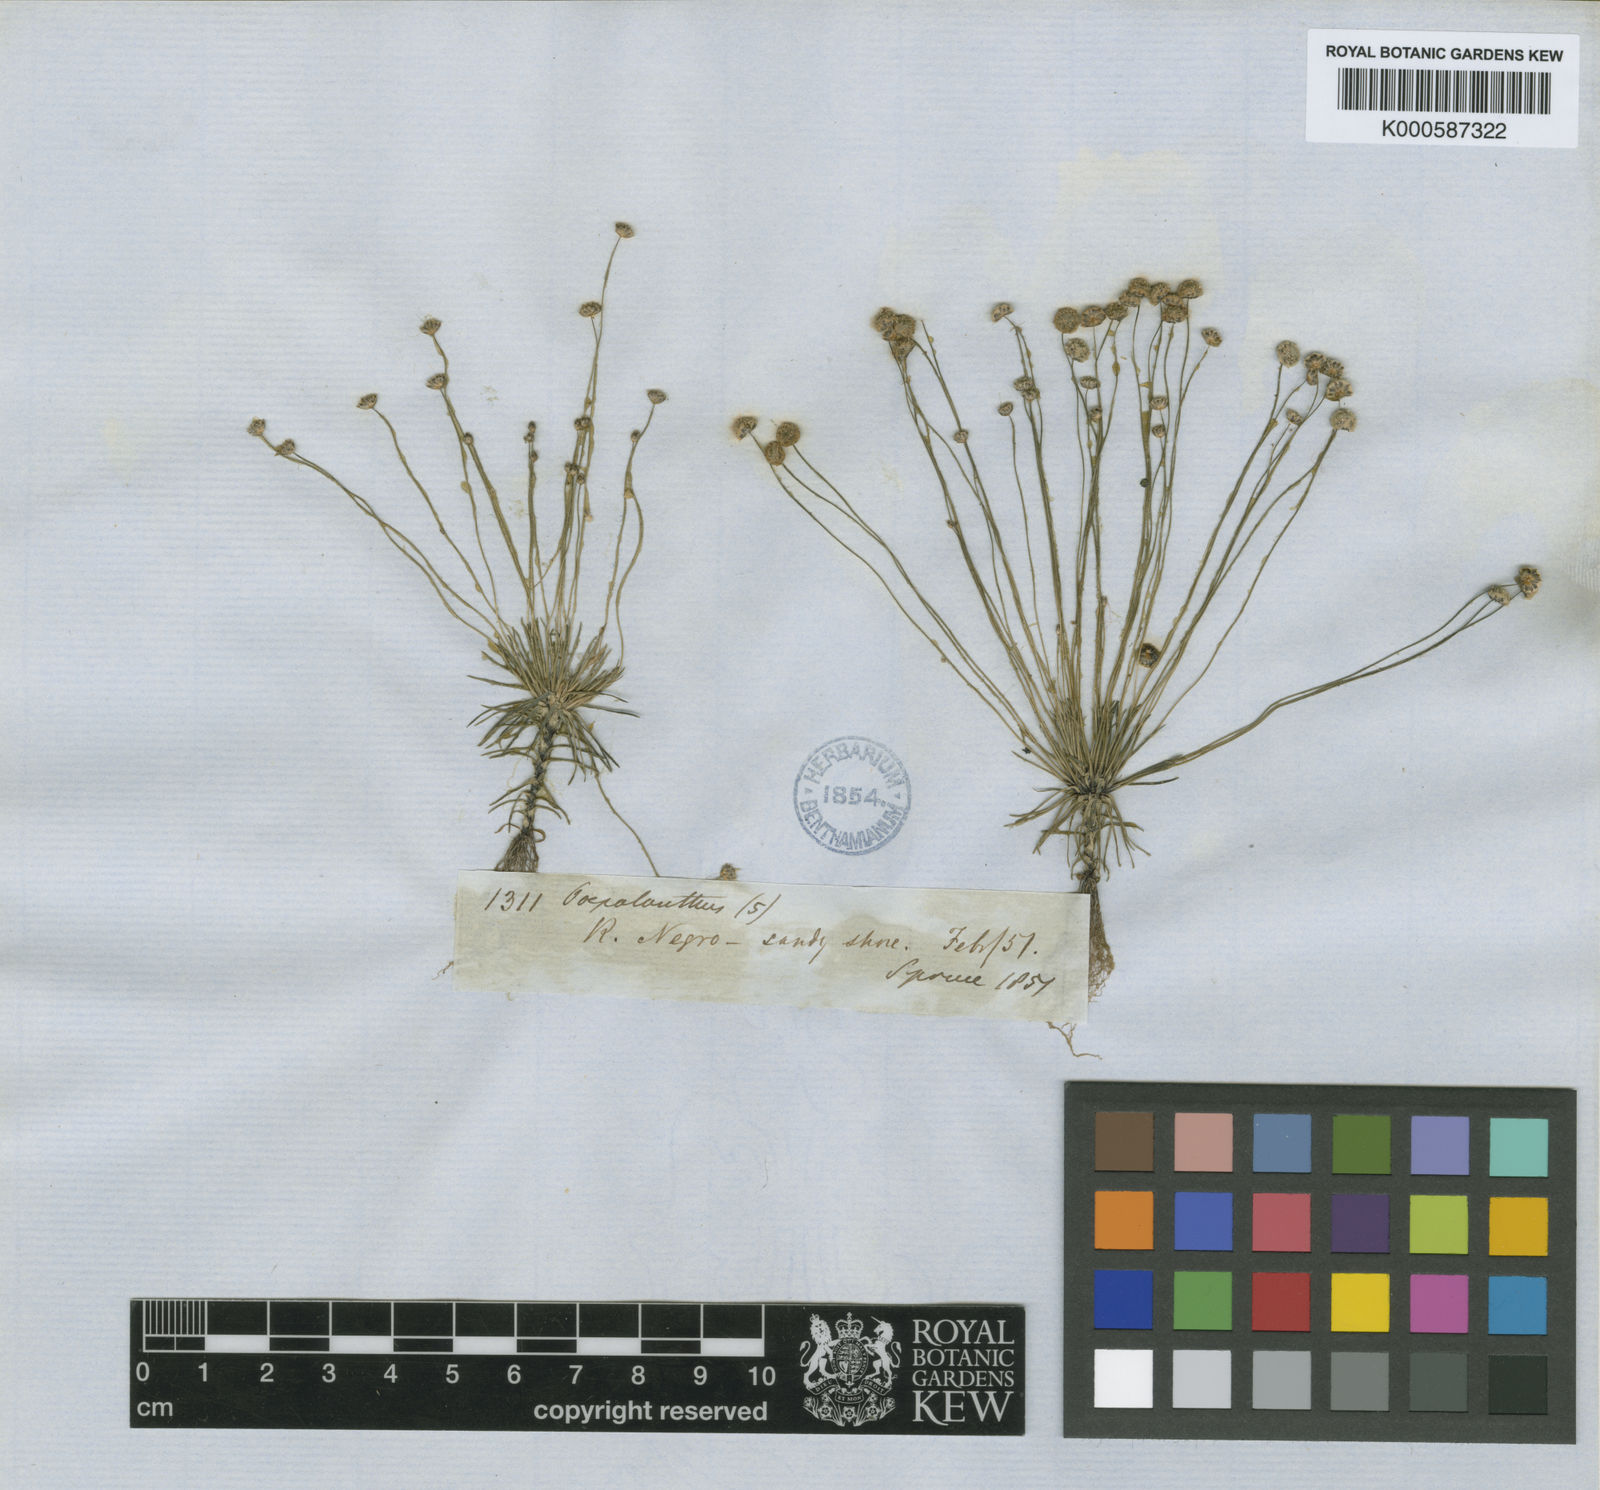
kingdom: Plantae
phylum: Tracheophyta
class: Liliopsida
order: Poales
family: Eriocaulaceae
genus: Paepalanthus
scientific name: Paepalanthus subtilis
